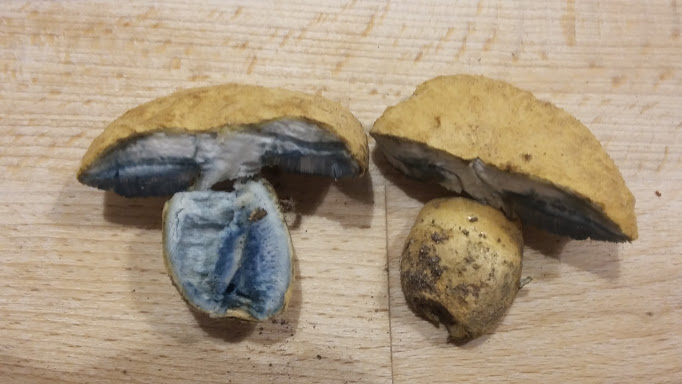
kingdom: Fungi
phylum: Basidiomycota
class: Agaricomycetes
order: Boletales
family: Gyroporaceae
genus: Gyroporus
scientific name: Gyroporus cyanescens
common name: blånende kammerrørhat
